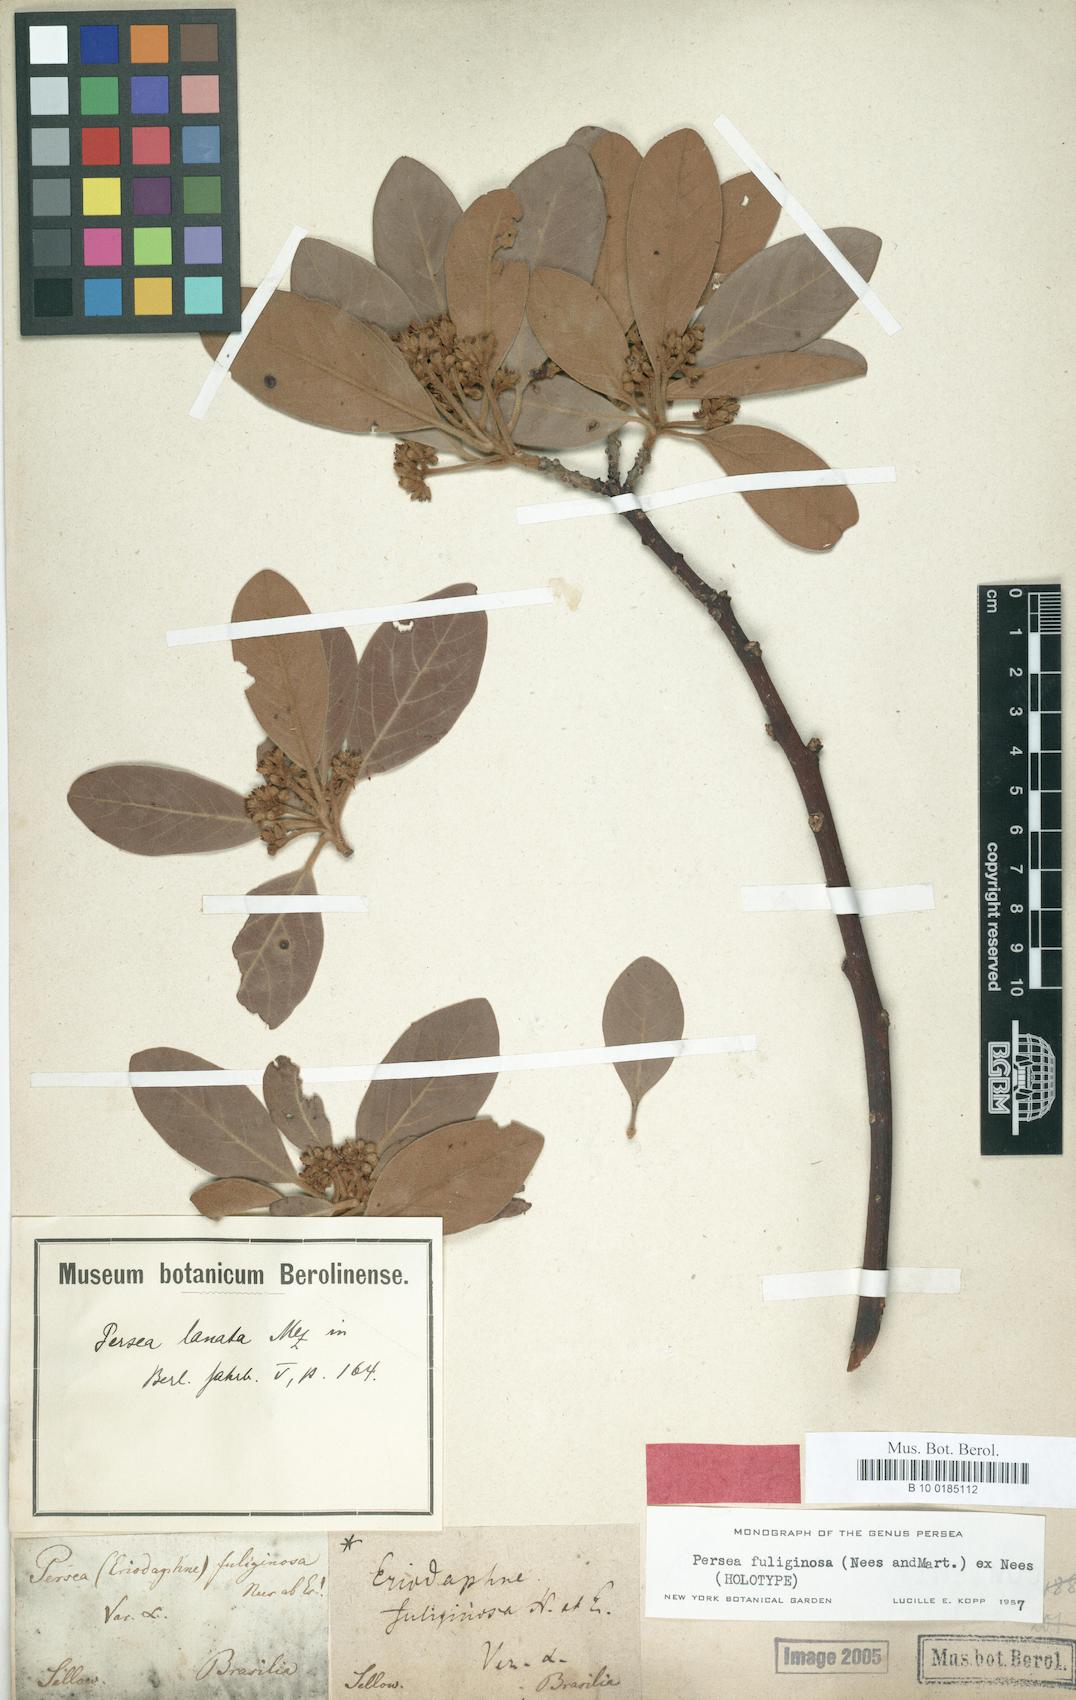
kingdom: Plantae
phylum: Tracheophyta
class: Magnoliopsida
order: Laurales
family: Lauraceae
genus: Persea
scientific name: Persea fuliginosa
